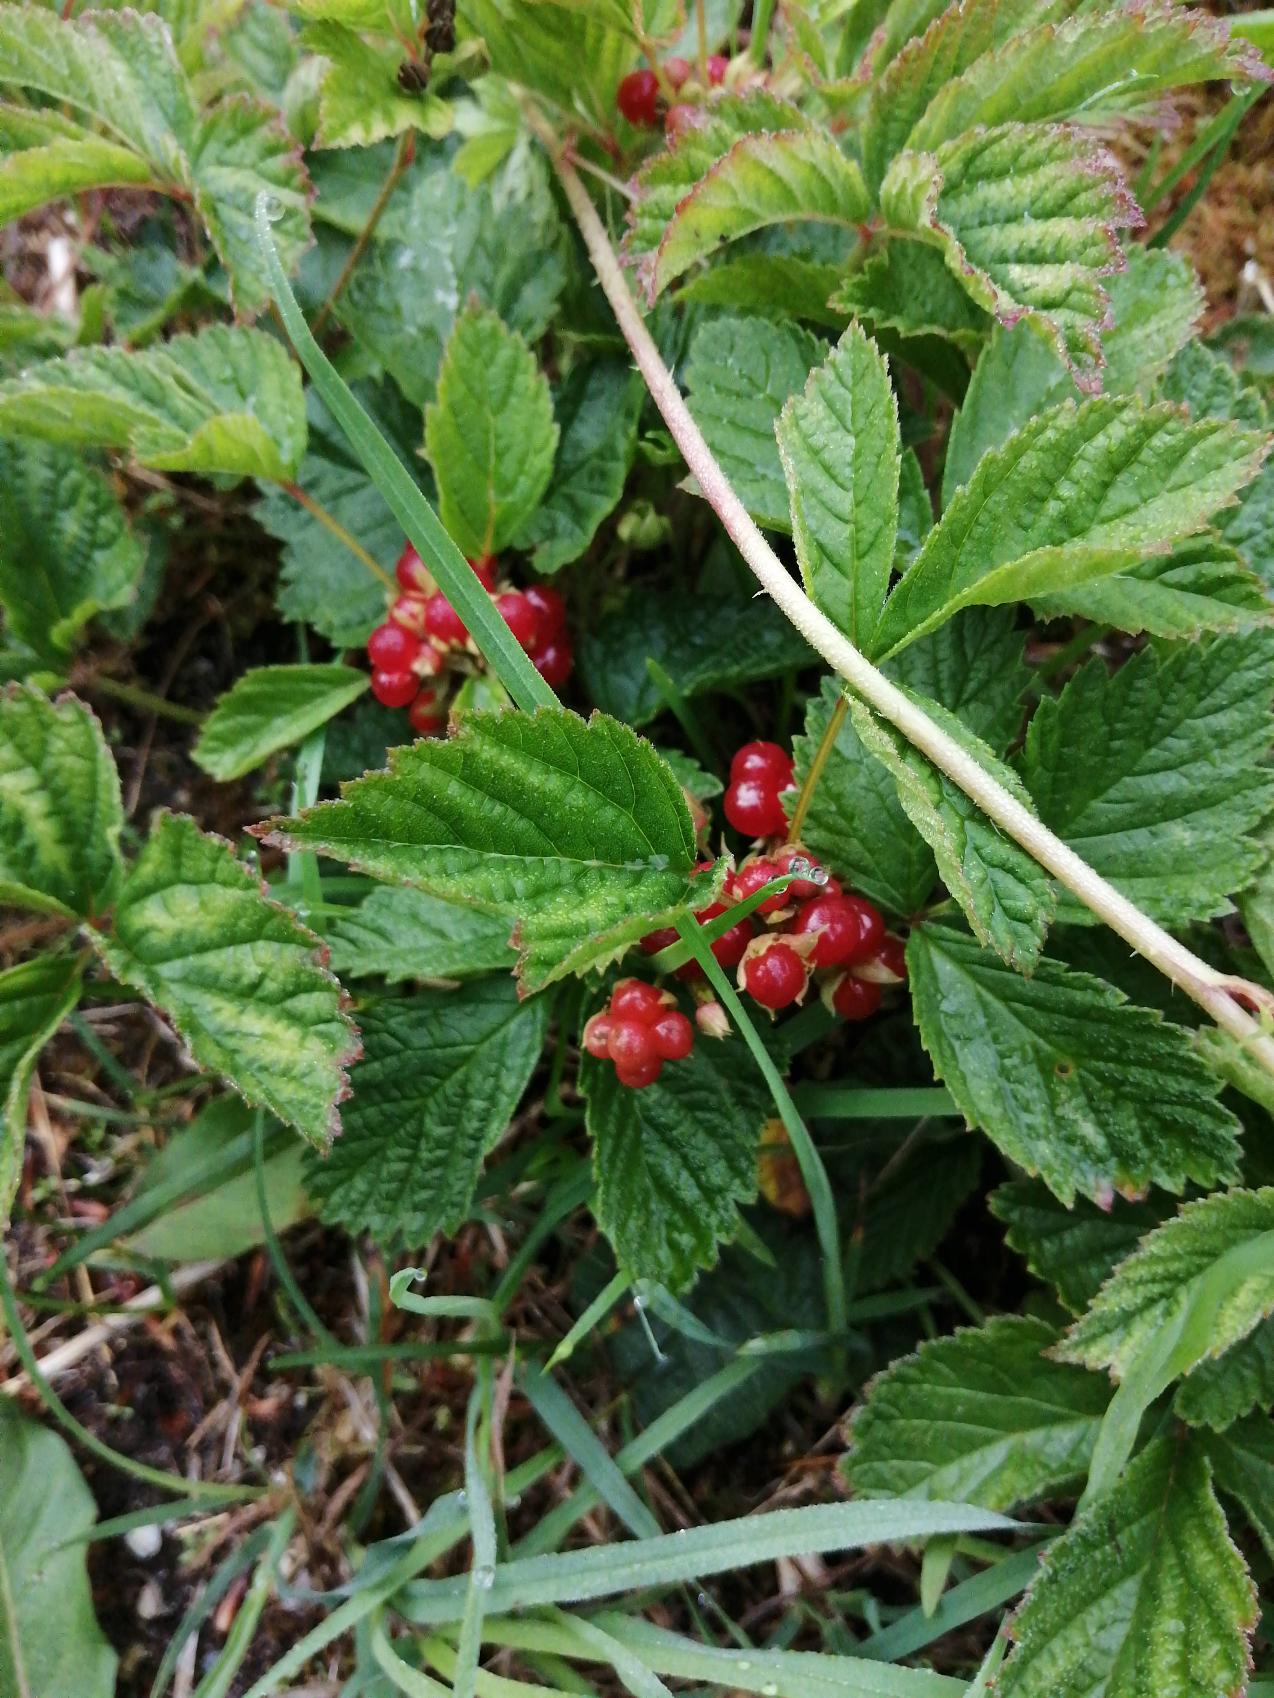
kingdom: Plantae
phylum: Tracheophyta
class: Magnoliopsida
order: Rosales
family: Rosaceae
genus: Rubus
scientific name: Rubus saxatilis
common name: Fruebær
